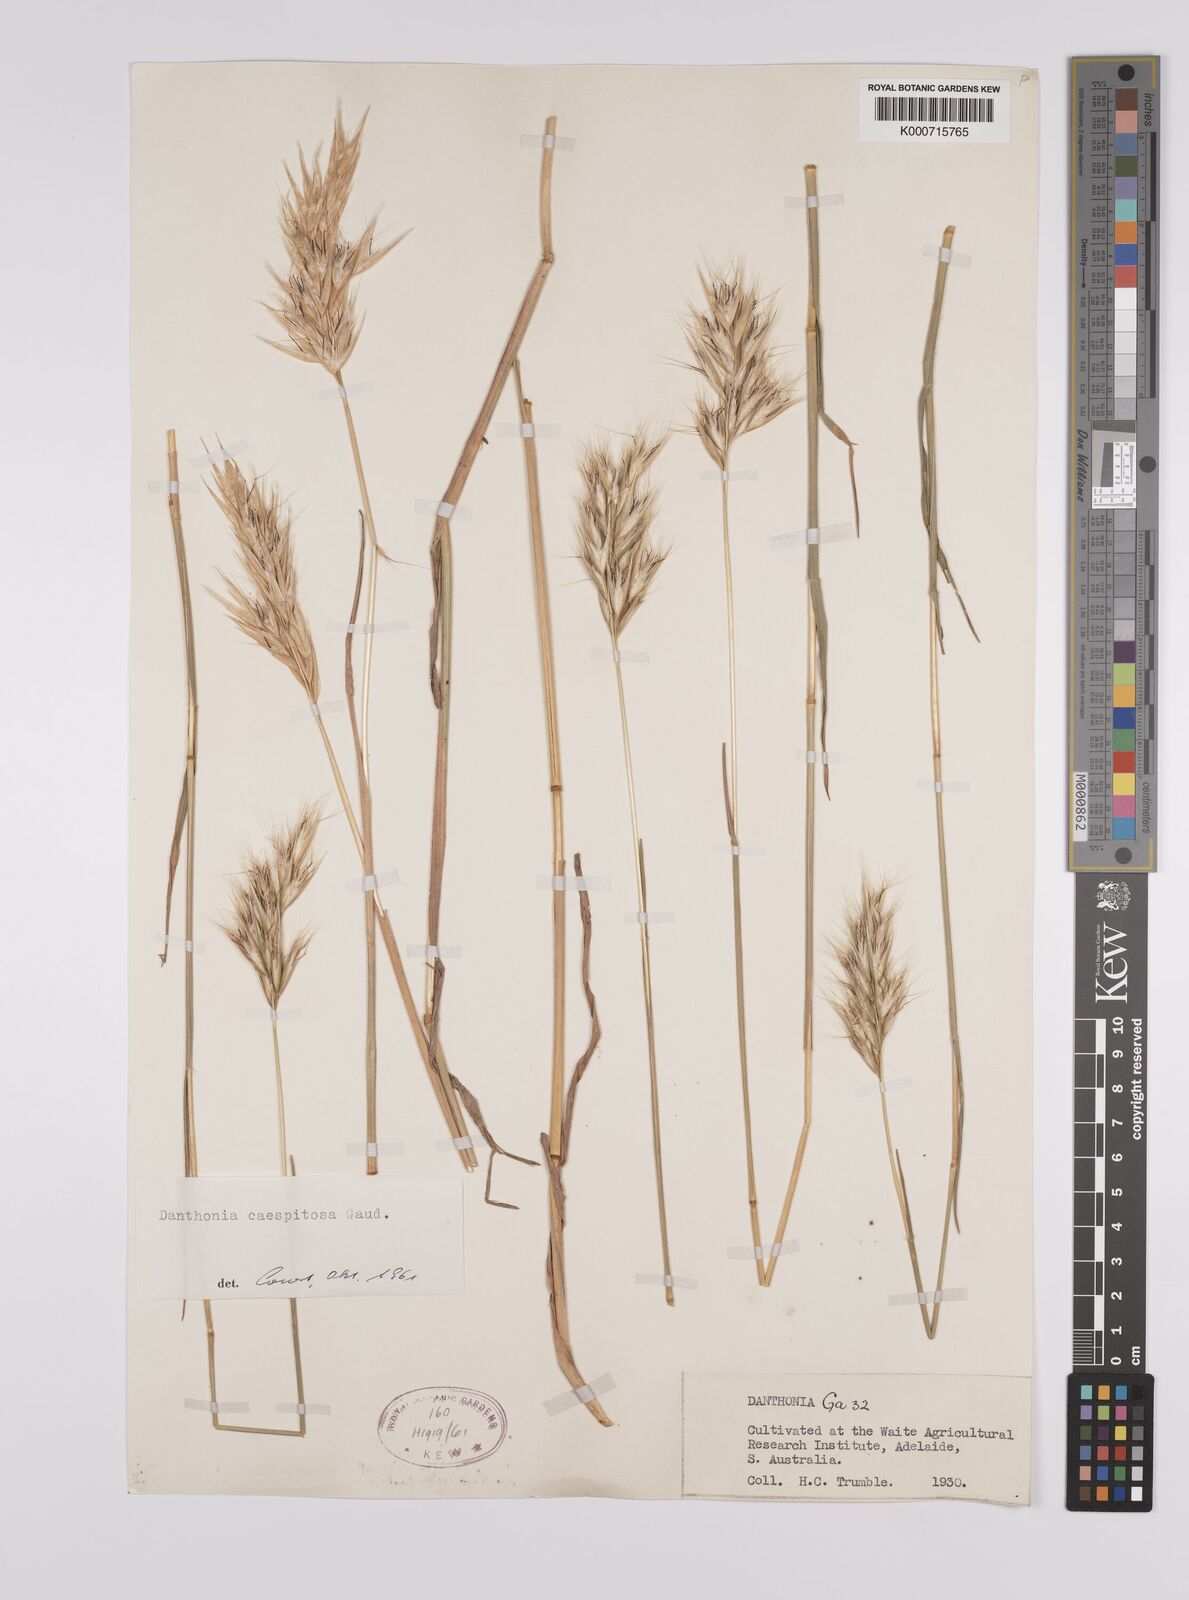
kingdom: Plantae
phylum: Tracheophyta
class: Liliopsida
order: Poales
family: Poaceae
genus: Rytidosperma
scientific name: Rytidosperma caespitosum
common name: Tufted wallaby grass
